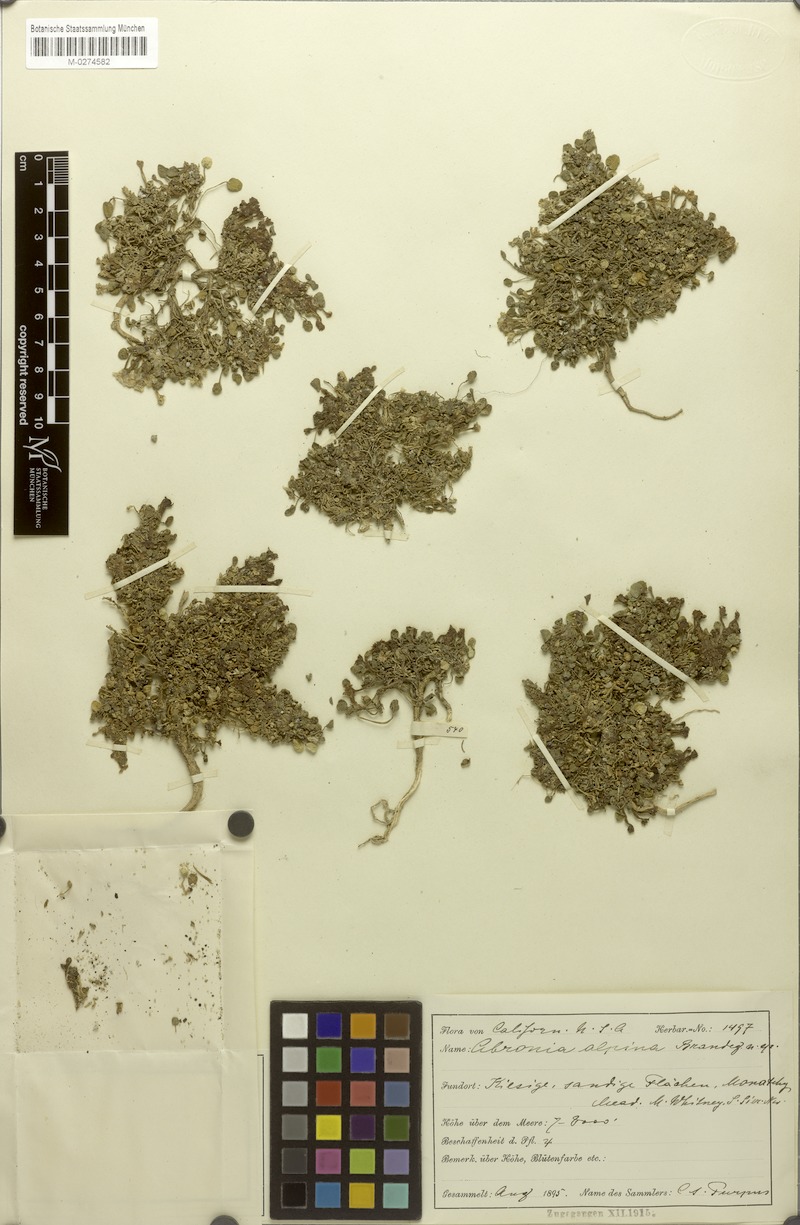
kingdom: Plantae
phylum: Tracheophyta
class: Magnoliopsida
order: Caryophyllales
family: Nyctaginaceae
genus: Abronia
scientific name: Abronia alpina
